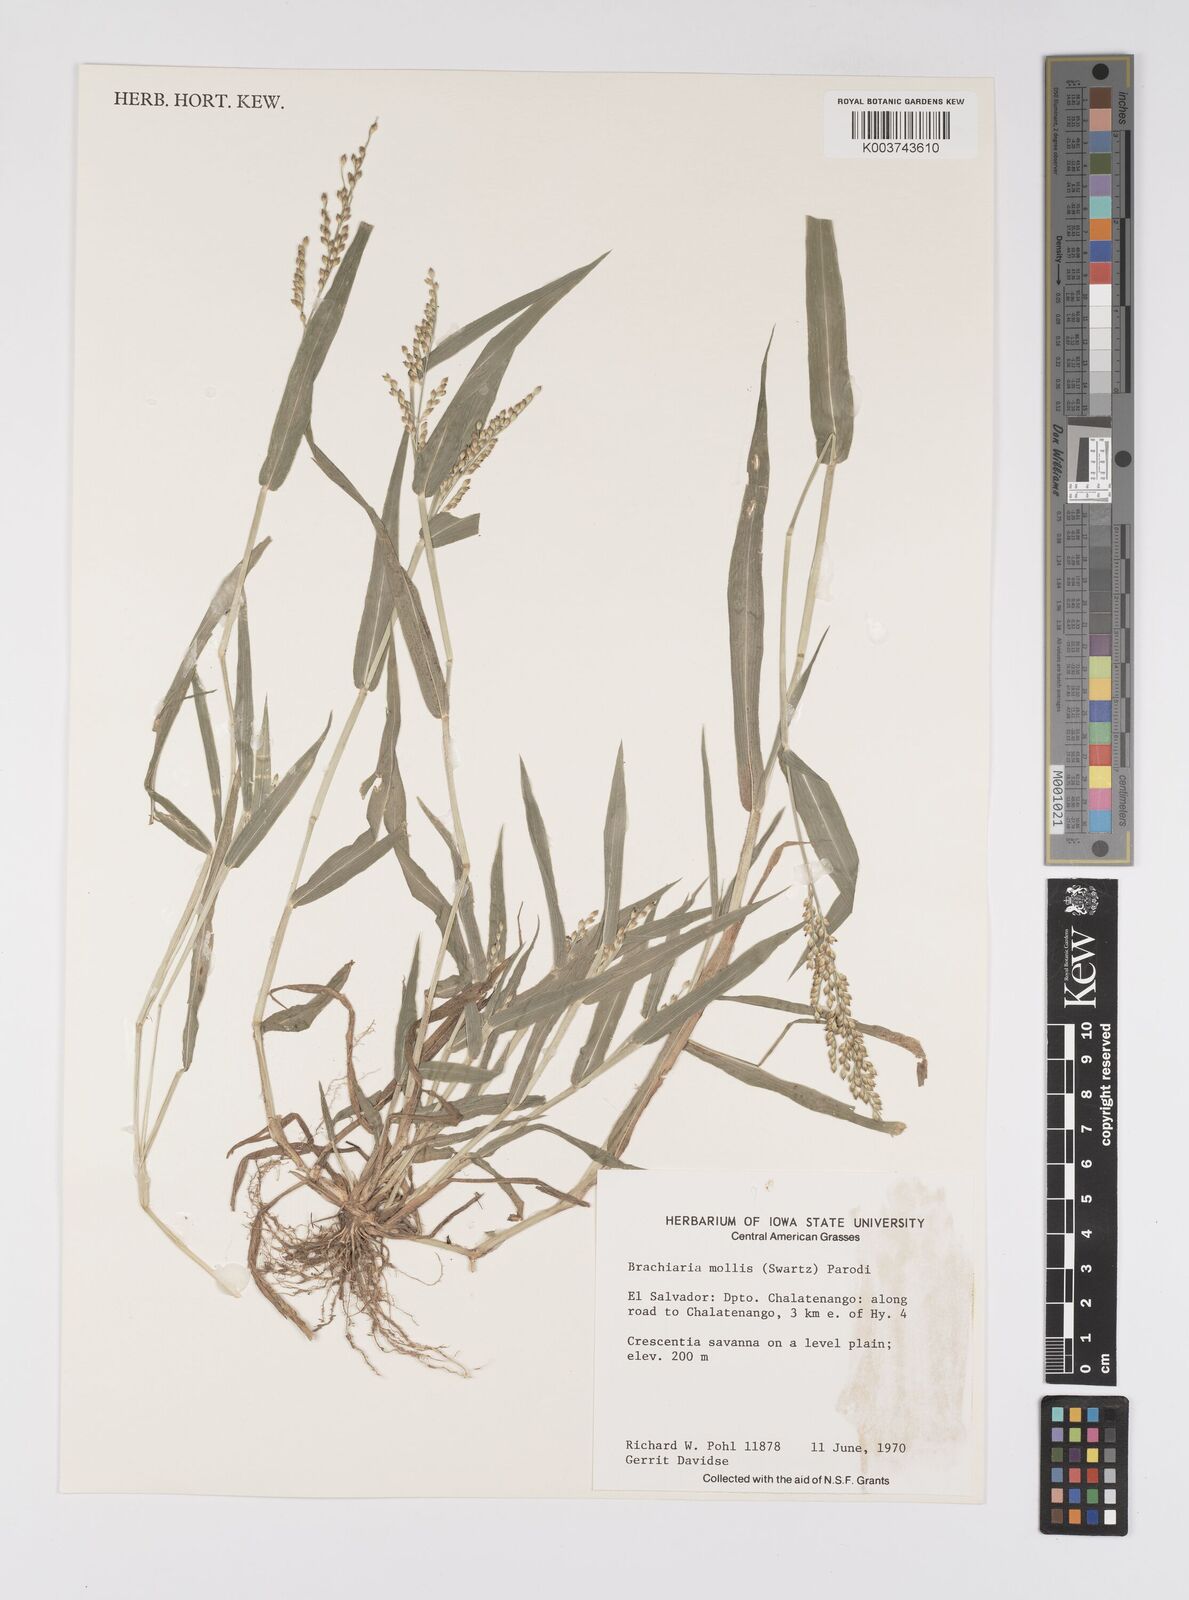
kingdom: Plantae
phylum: Tracheophyta
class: Liliopsida
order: Poales
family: Poaceae
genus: Urochloa
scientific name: Urochloa mollis
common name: Grass
